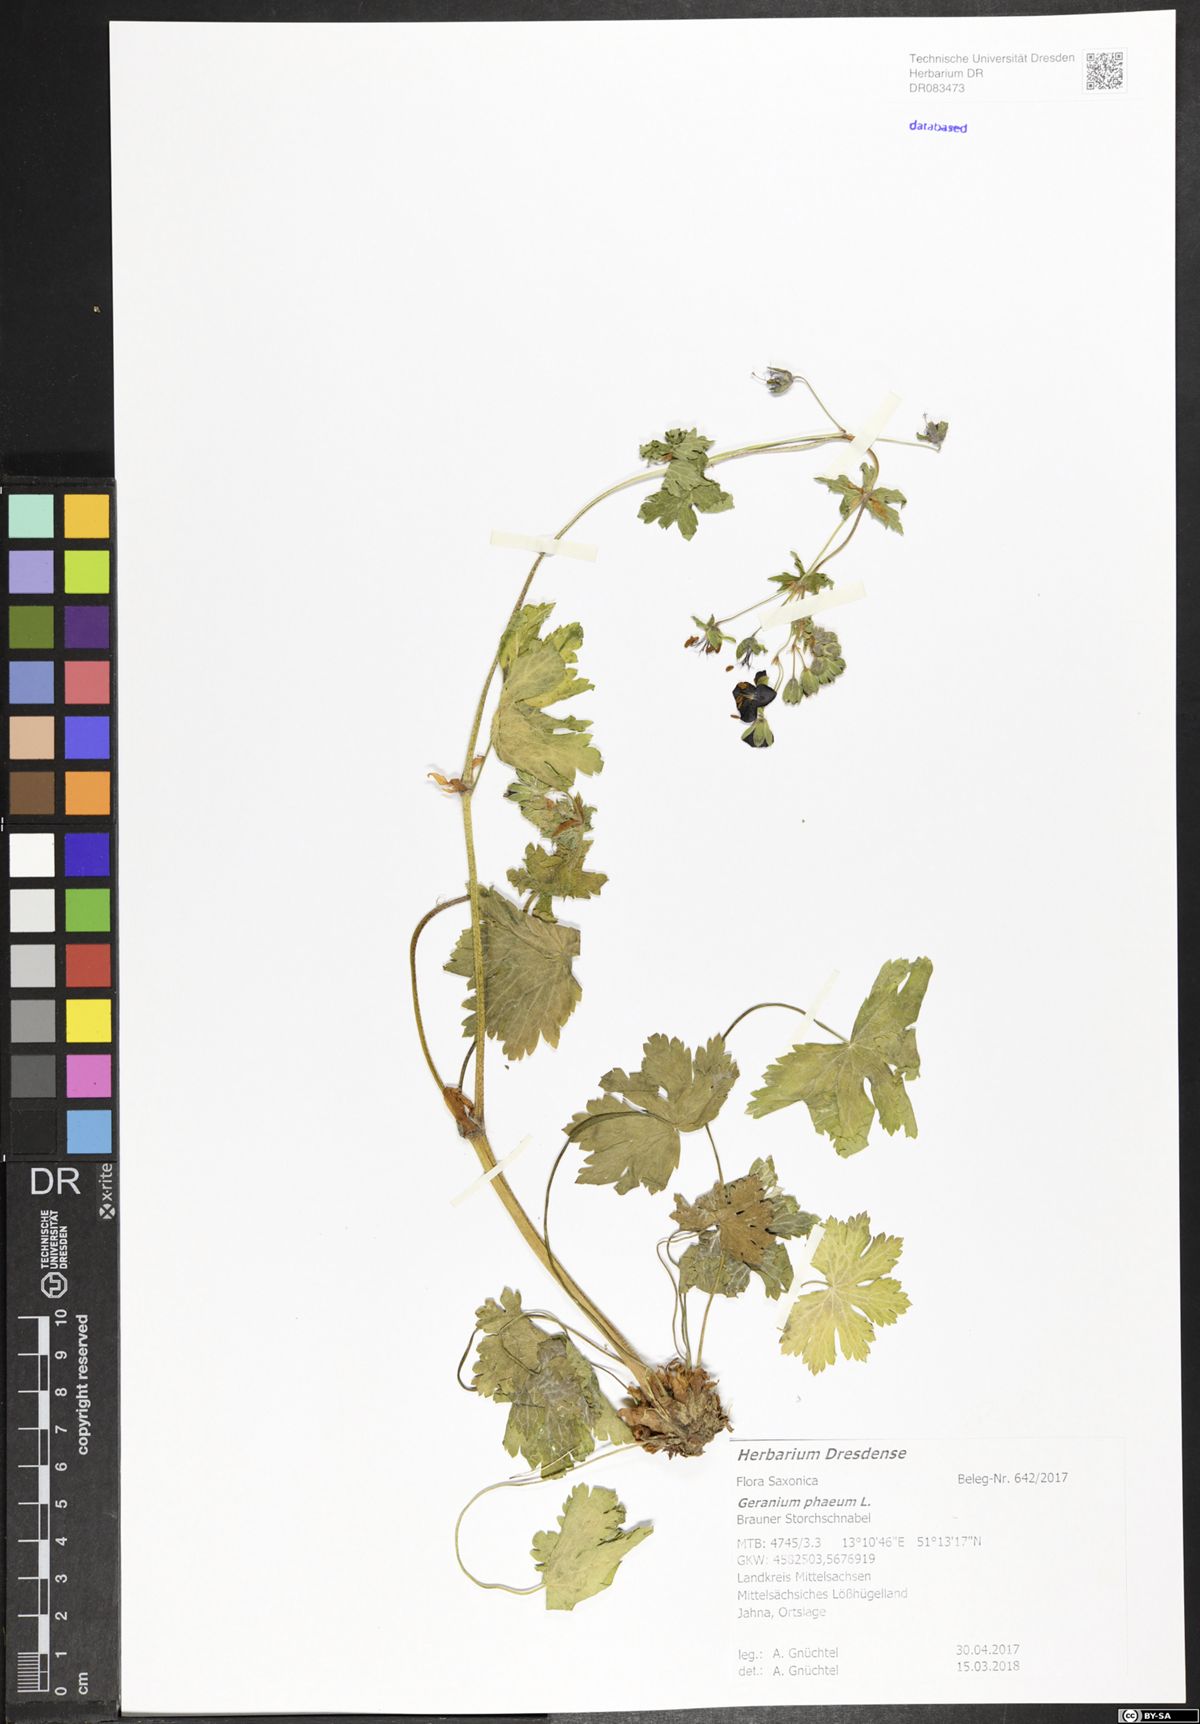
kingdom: Plantae
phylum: Tracheophyta
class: Magnoliopsida
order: Geraniales
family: Geraniaceae
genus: Geranium
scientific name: Geranium phaeum
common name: Dusky crane's-bill
